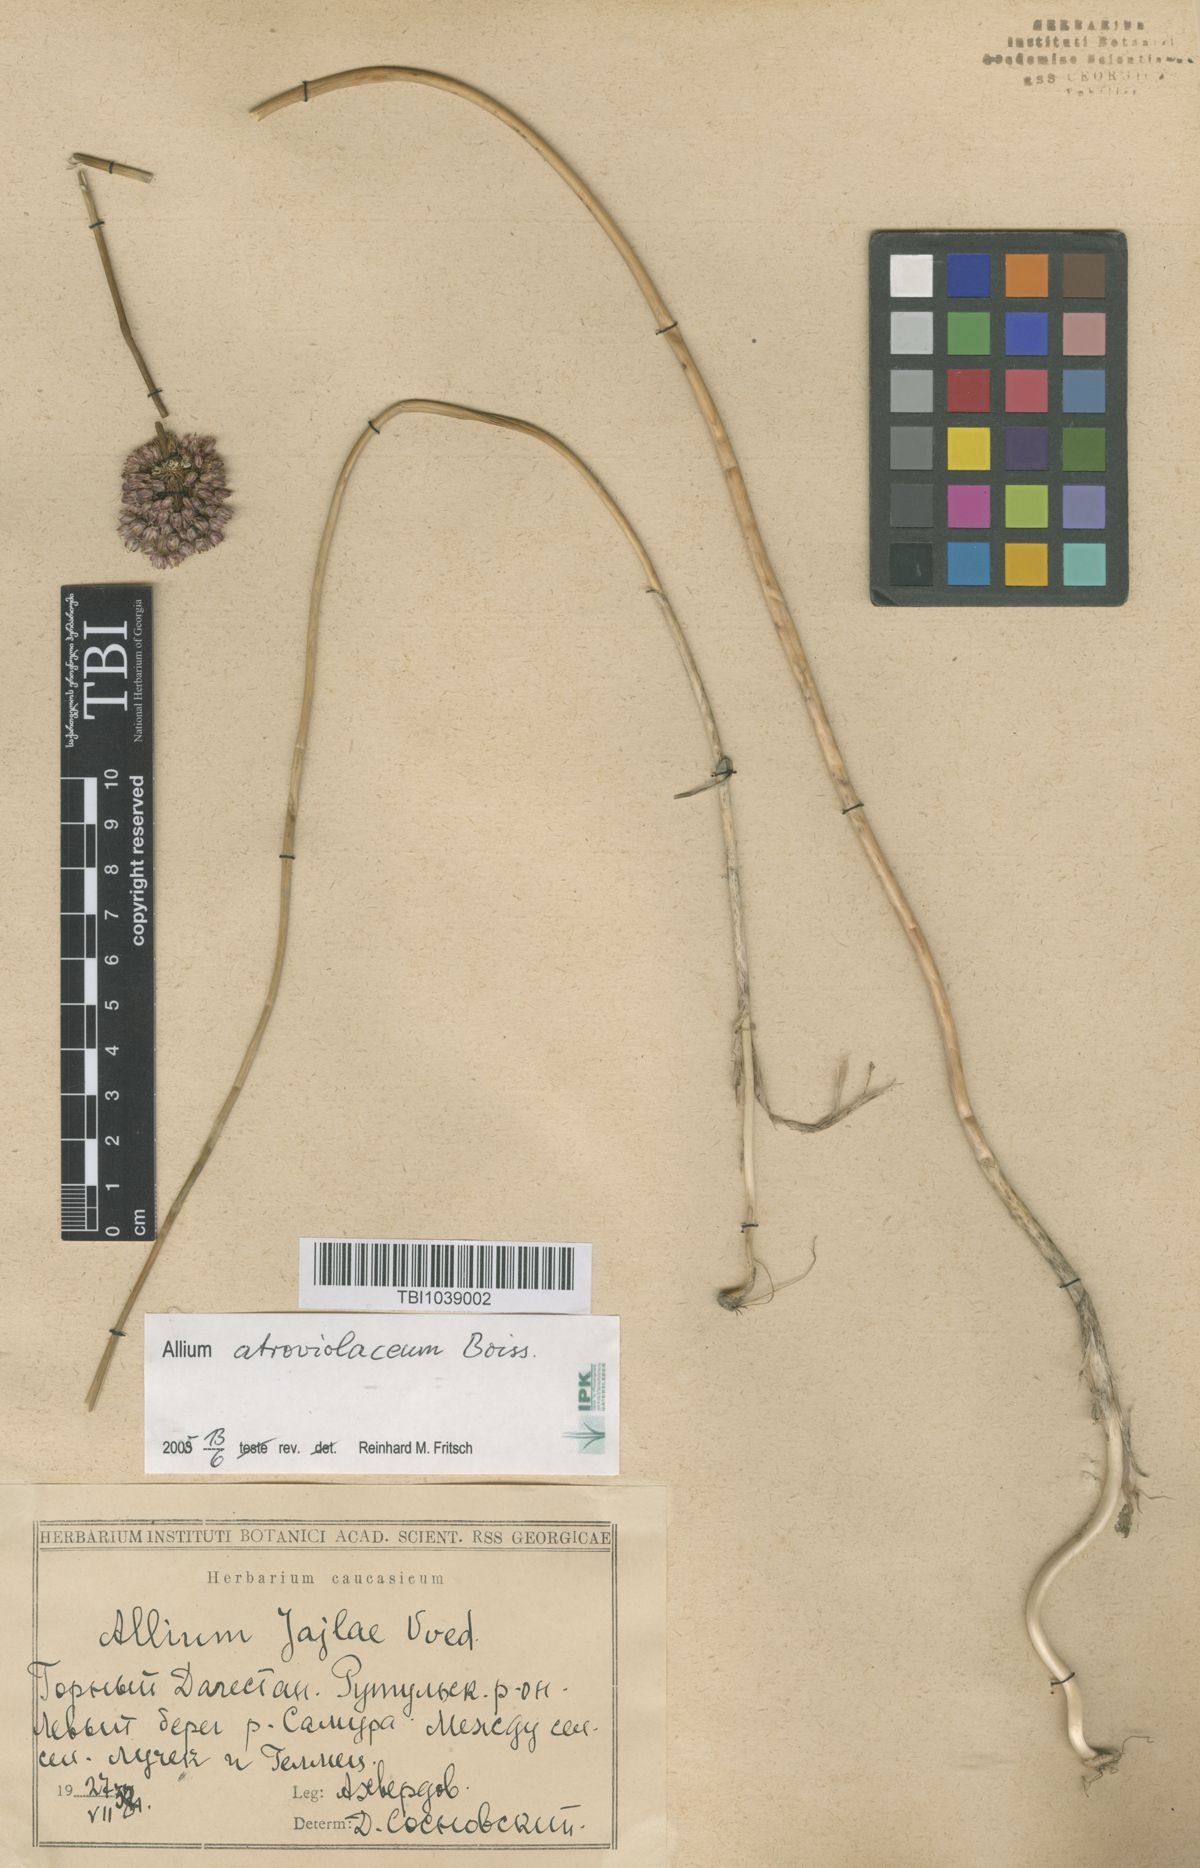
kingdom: Plantae
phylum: Tracheophyta
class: Liliopsida
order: Asparagales
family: Amaryllidaceae
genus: Allium
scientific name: Allium rotundum
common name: Sand leek
